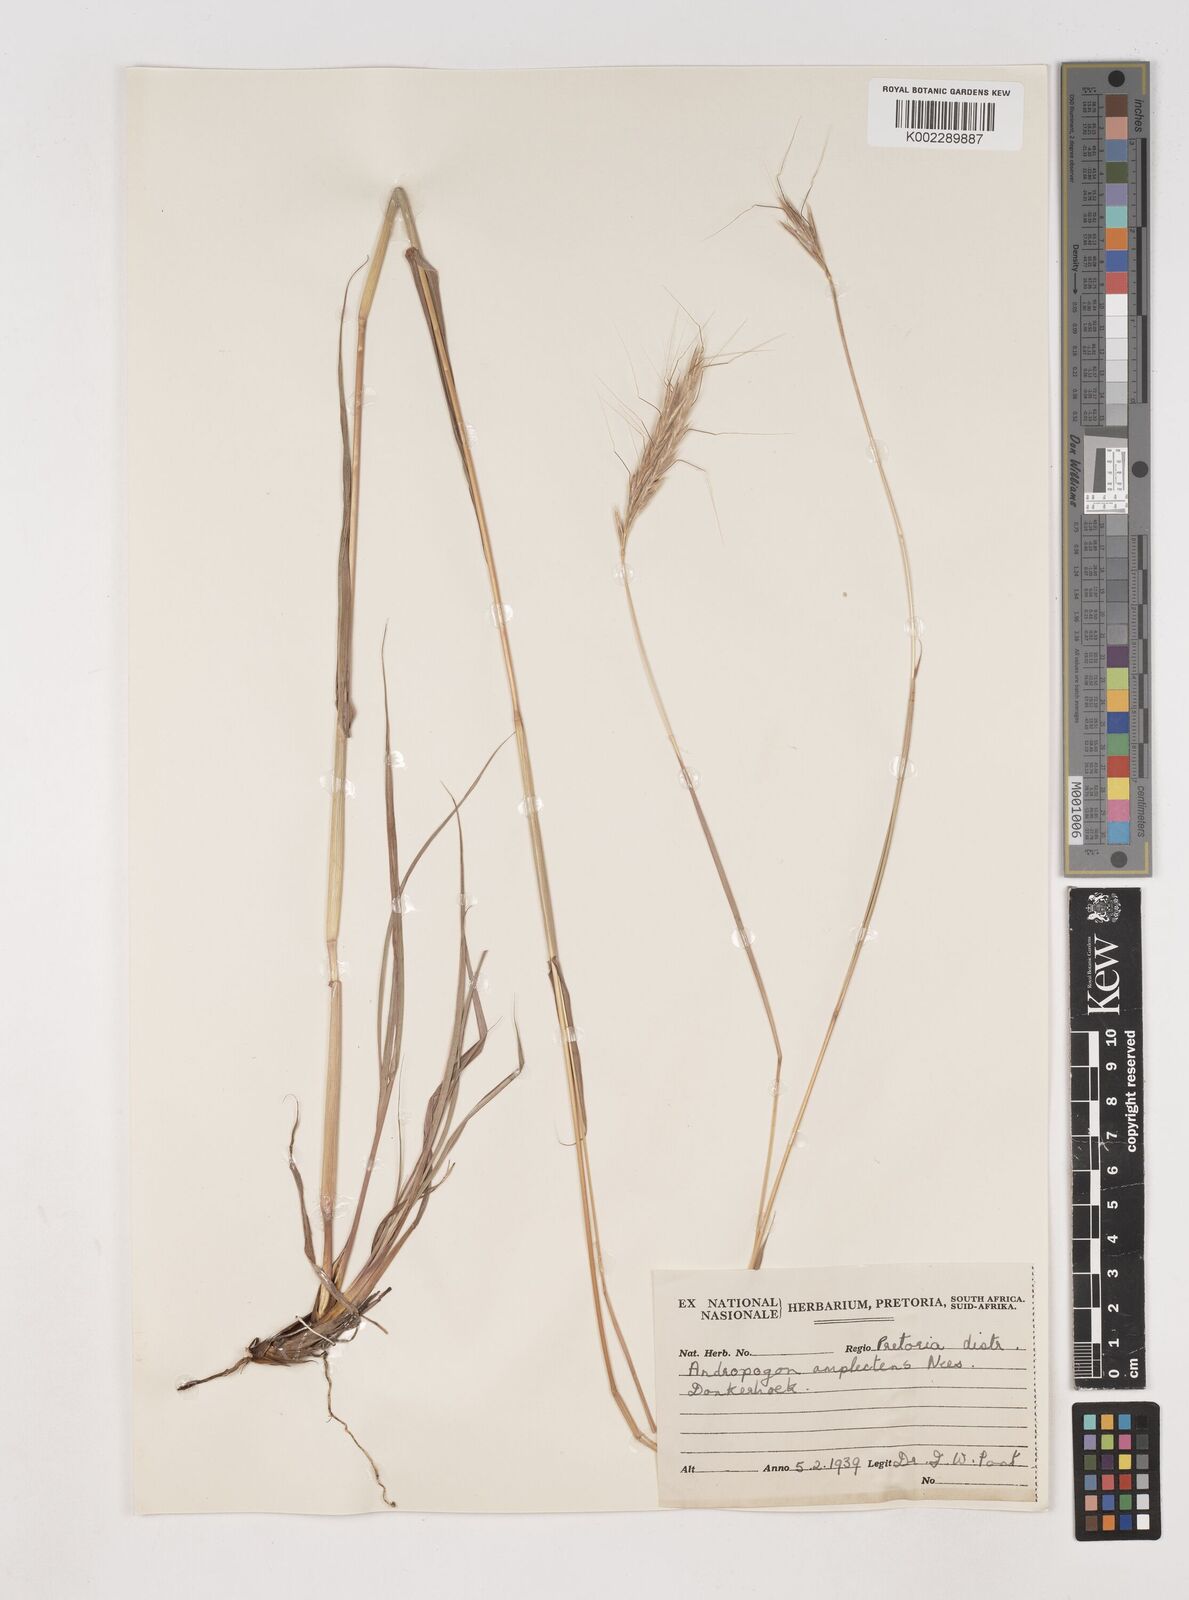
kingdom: Plantae
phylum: Tracheophyta
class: Liliopsida
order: Poales
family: Poaceae
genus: Diheteropogon
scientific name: Diheteropogon amplectens
